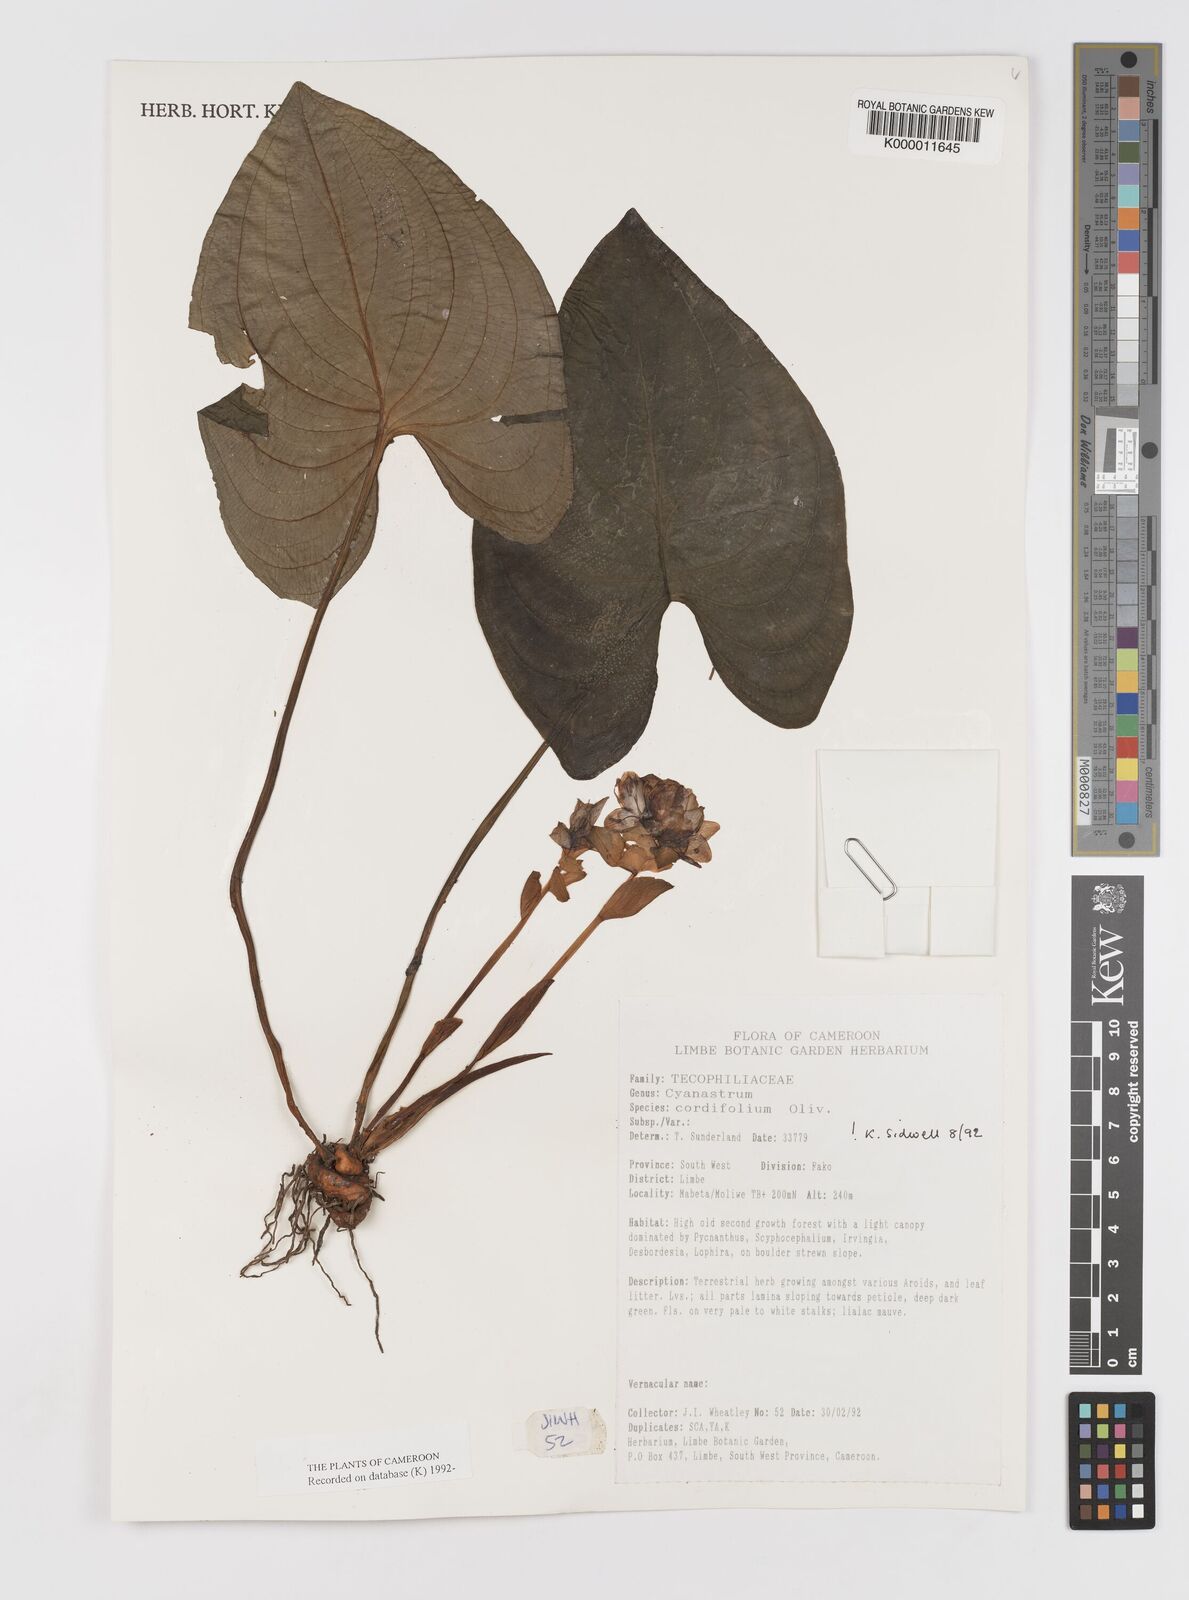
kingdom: Plantae
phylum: Tracheophyta
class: Liliopsida
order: Asparagales
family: Tecophilaeaceae
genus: Cyanastrum
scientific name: Cyanastrum cordifolium
